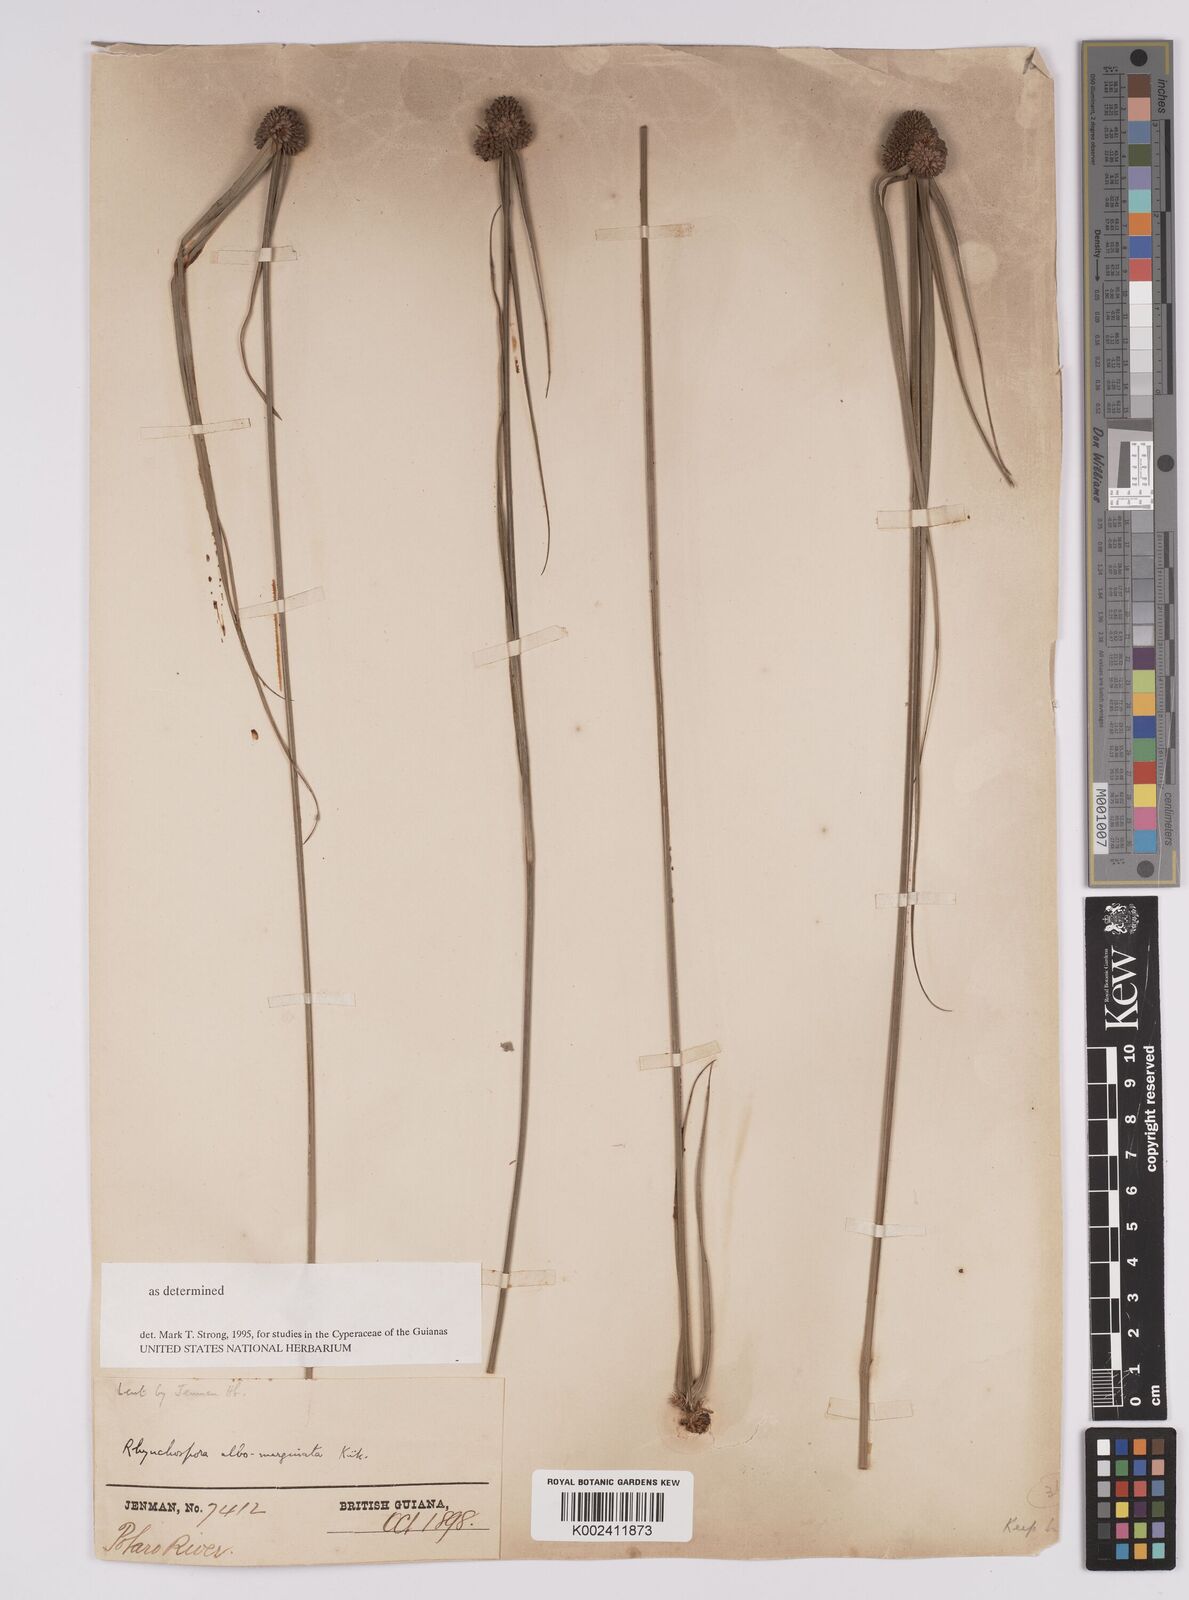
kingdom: Plantae
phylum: Tracheophyta
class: Liliopsida
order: Poales
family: Cyperaceae
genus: Rhynchospora
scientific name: Rhynchospora albomarginata
